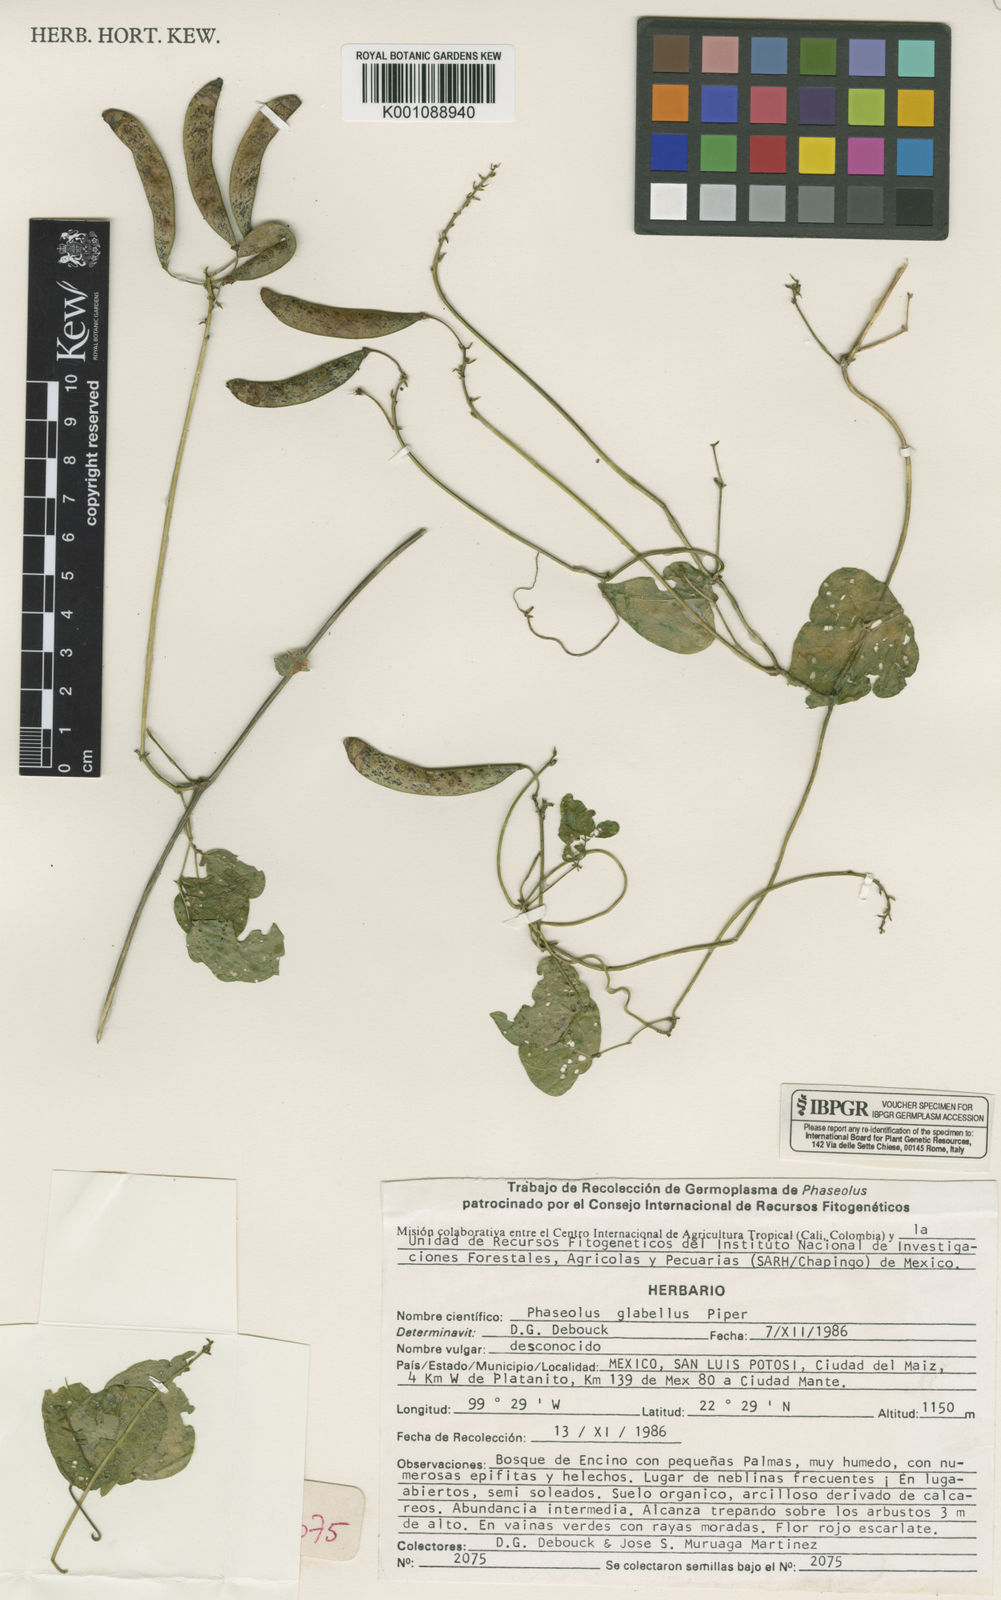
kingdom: Plantae
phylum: Tracheophyta
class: Magnoliopsida
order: Fabales
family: Fabaceae
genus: Phaseolus
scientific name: Phaseolus glabellus
